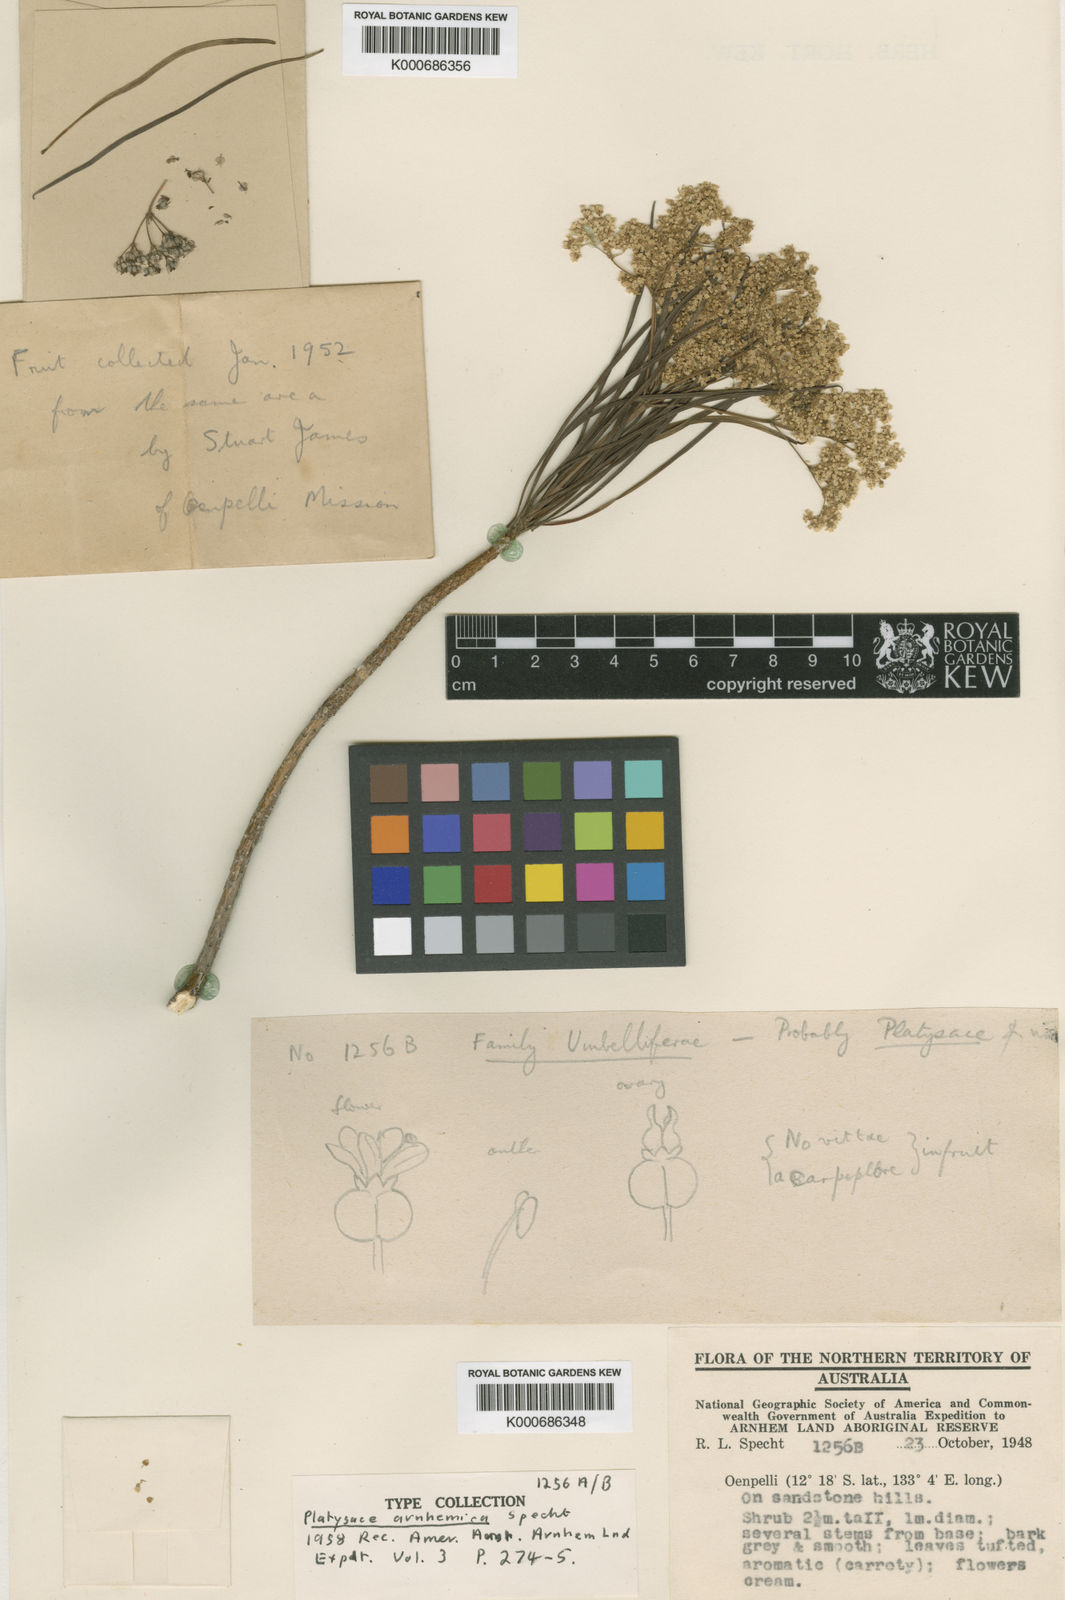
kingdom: Plantae
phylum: Tracheophyta
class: Magnoliopsida
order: Apiales
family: Apiaceae
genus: Platysace
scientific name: Platysace arnhemica
